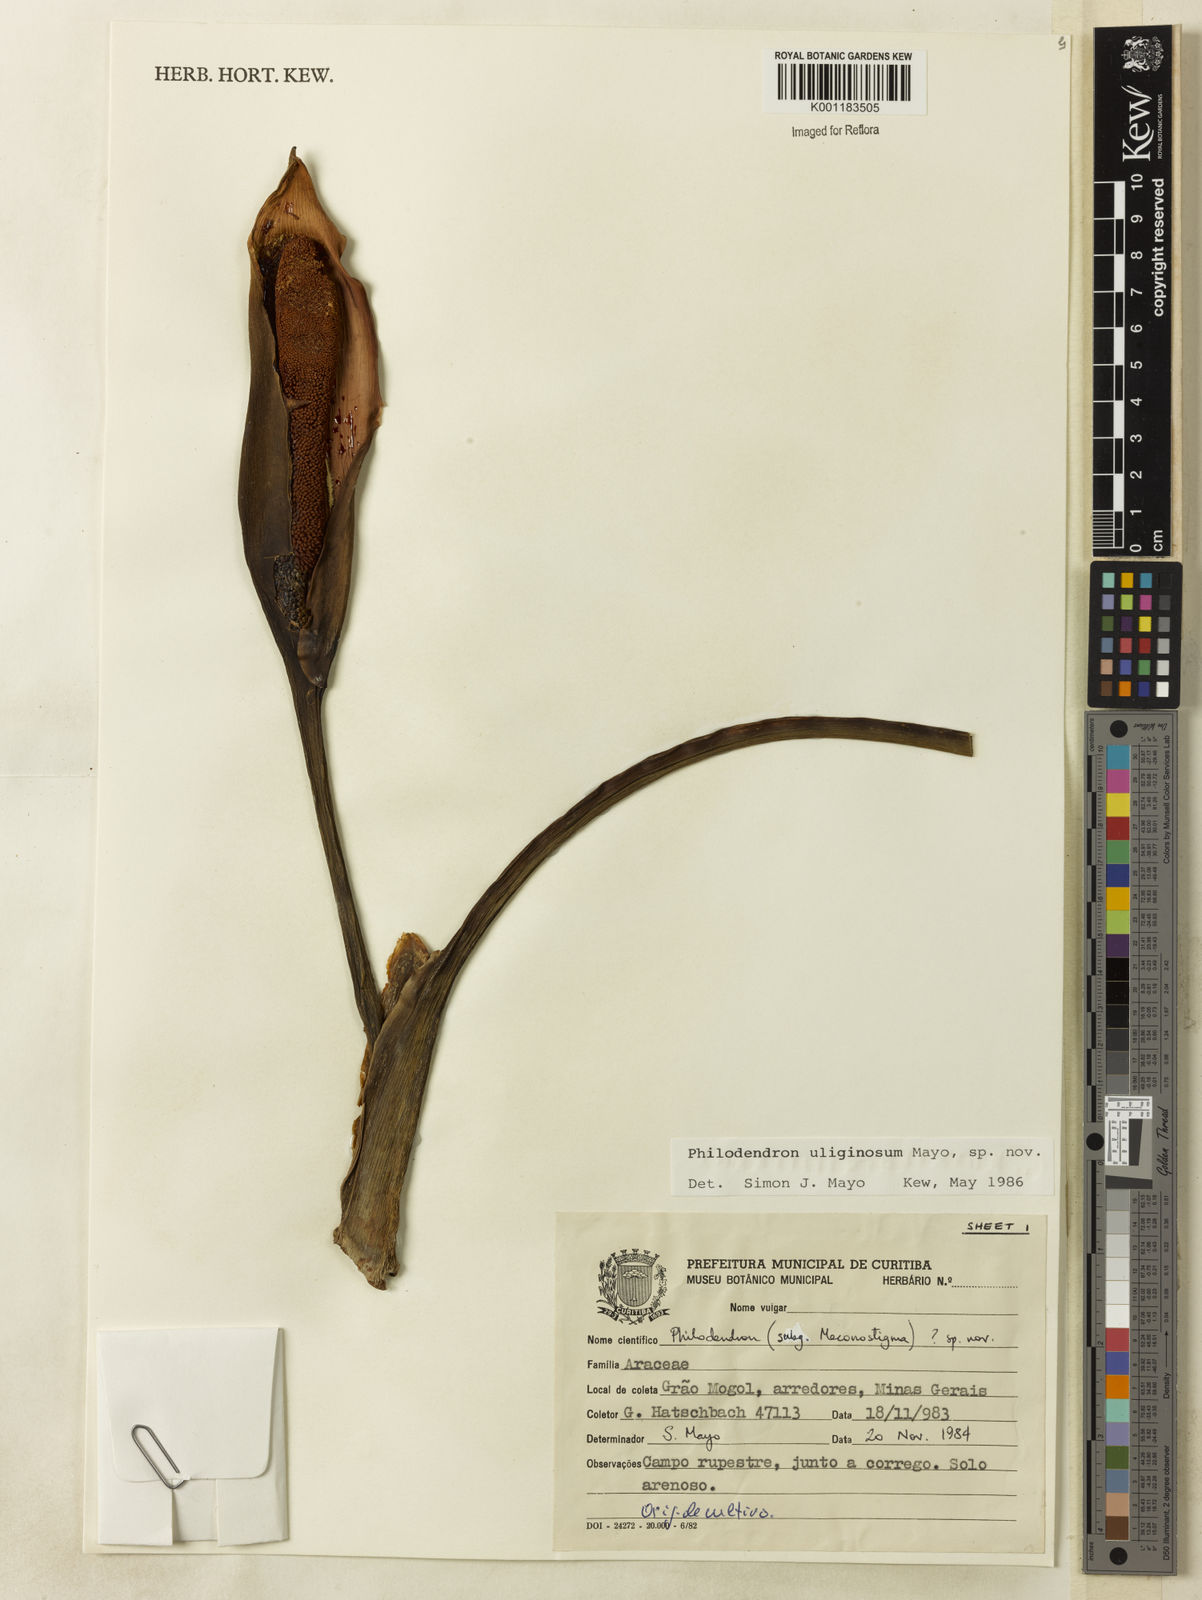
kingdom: Plantae
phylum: Tracheophyta
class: Liliopsida
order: Alismatales
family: Araceae
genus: Thaumatophyllum
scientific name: Thaumatophyllum uliginosum
